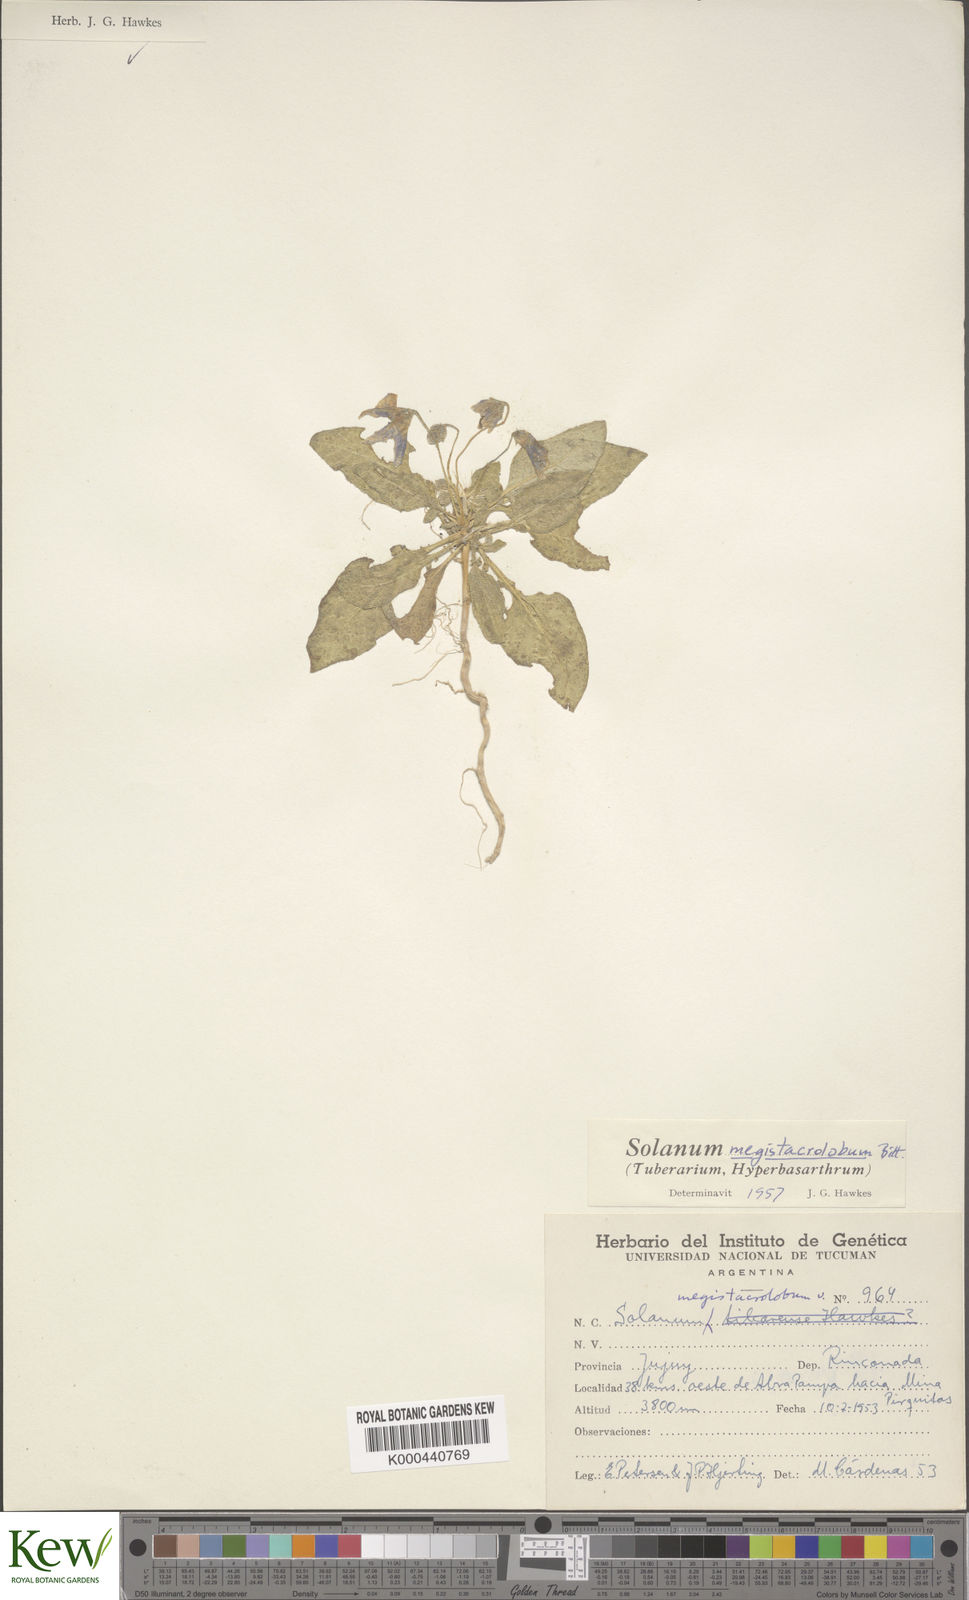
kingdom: Plantae
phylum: Tracheophyta
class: Magnoliopsida
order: Solanales
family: Solanaceae
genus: Solanum
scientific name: Solanum boliviense
